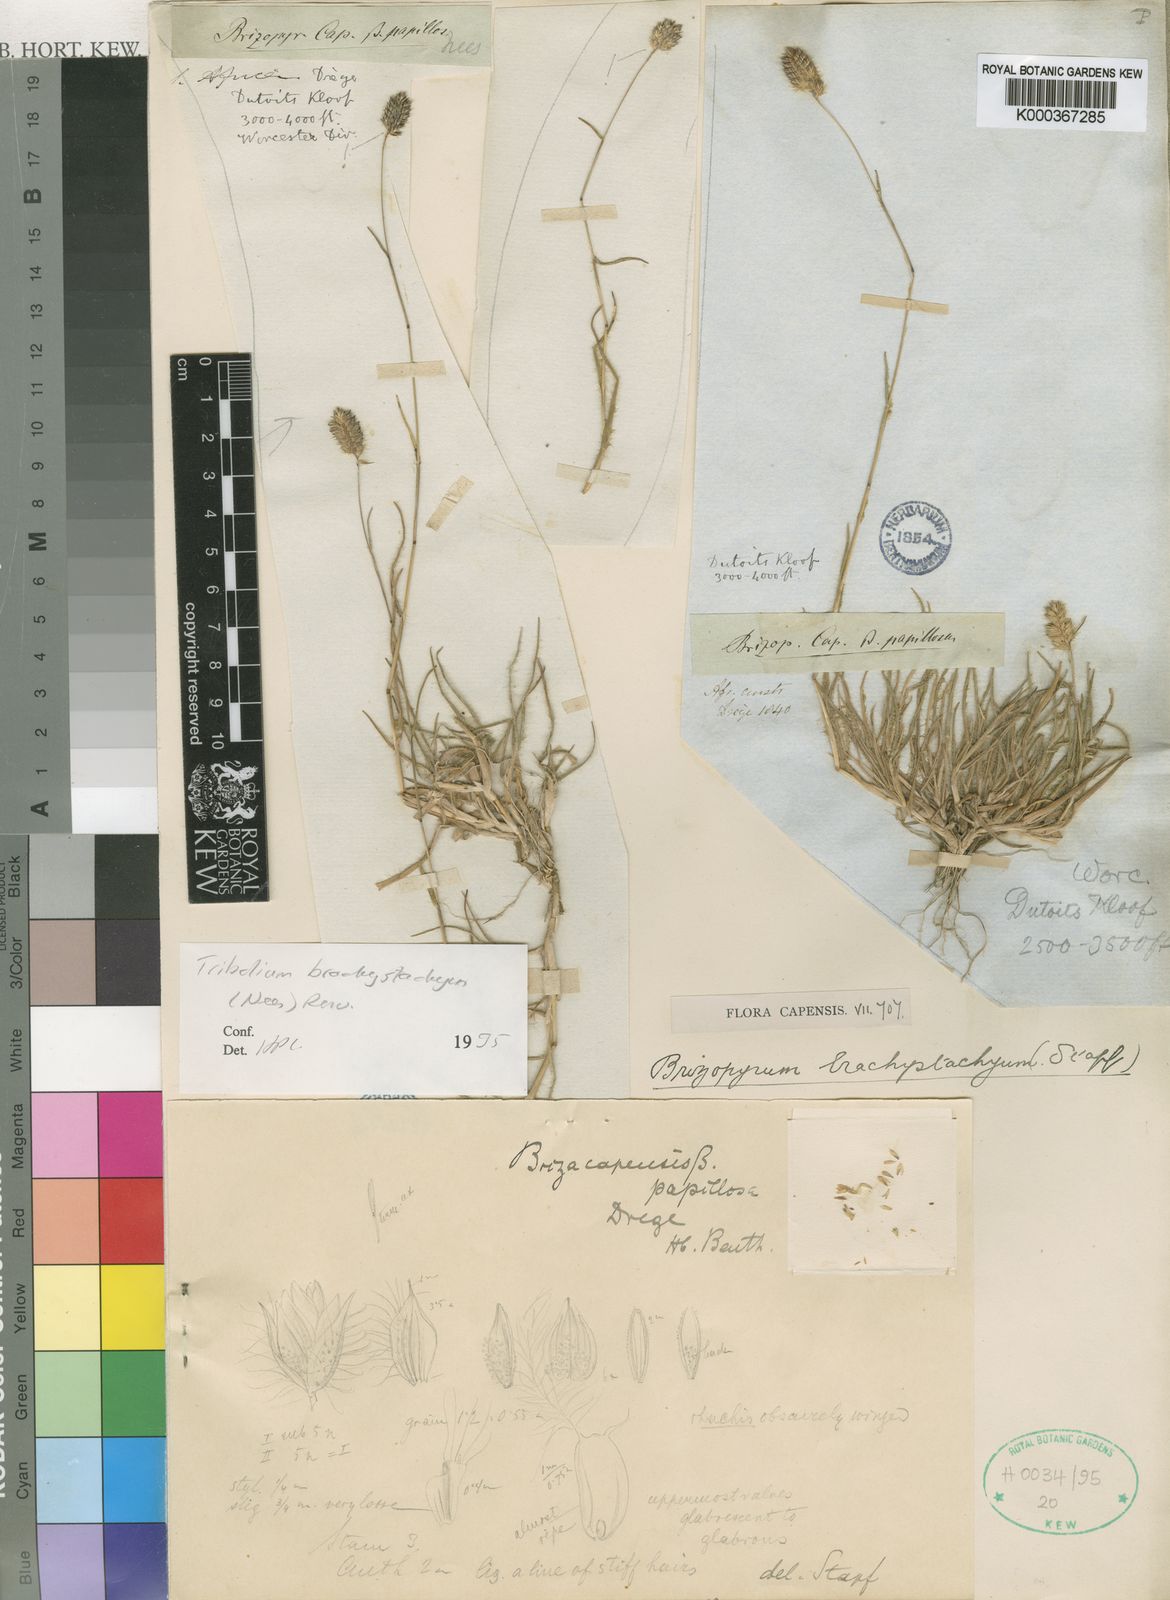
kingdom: Plantae
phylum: Tracheophyta
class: Liliopsida
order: Poales
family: Poaceae
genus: Tribolium
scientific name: Tribolium brachystachyum
